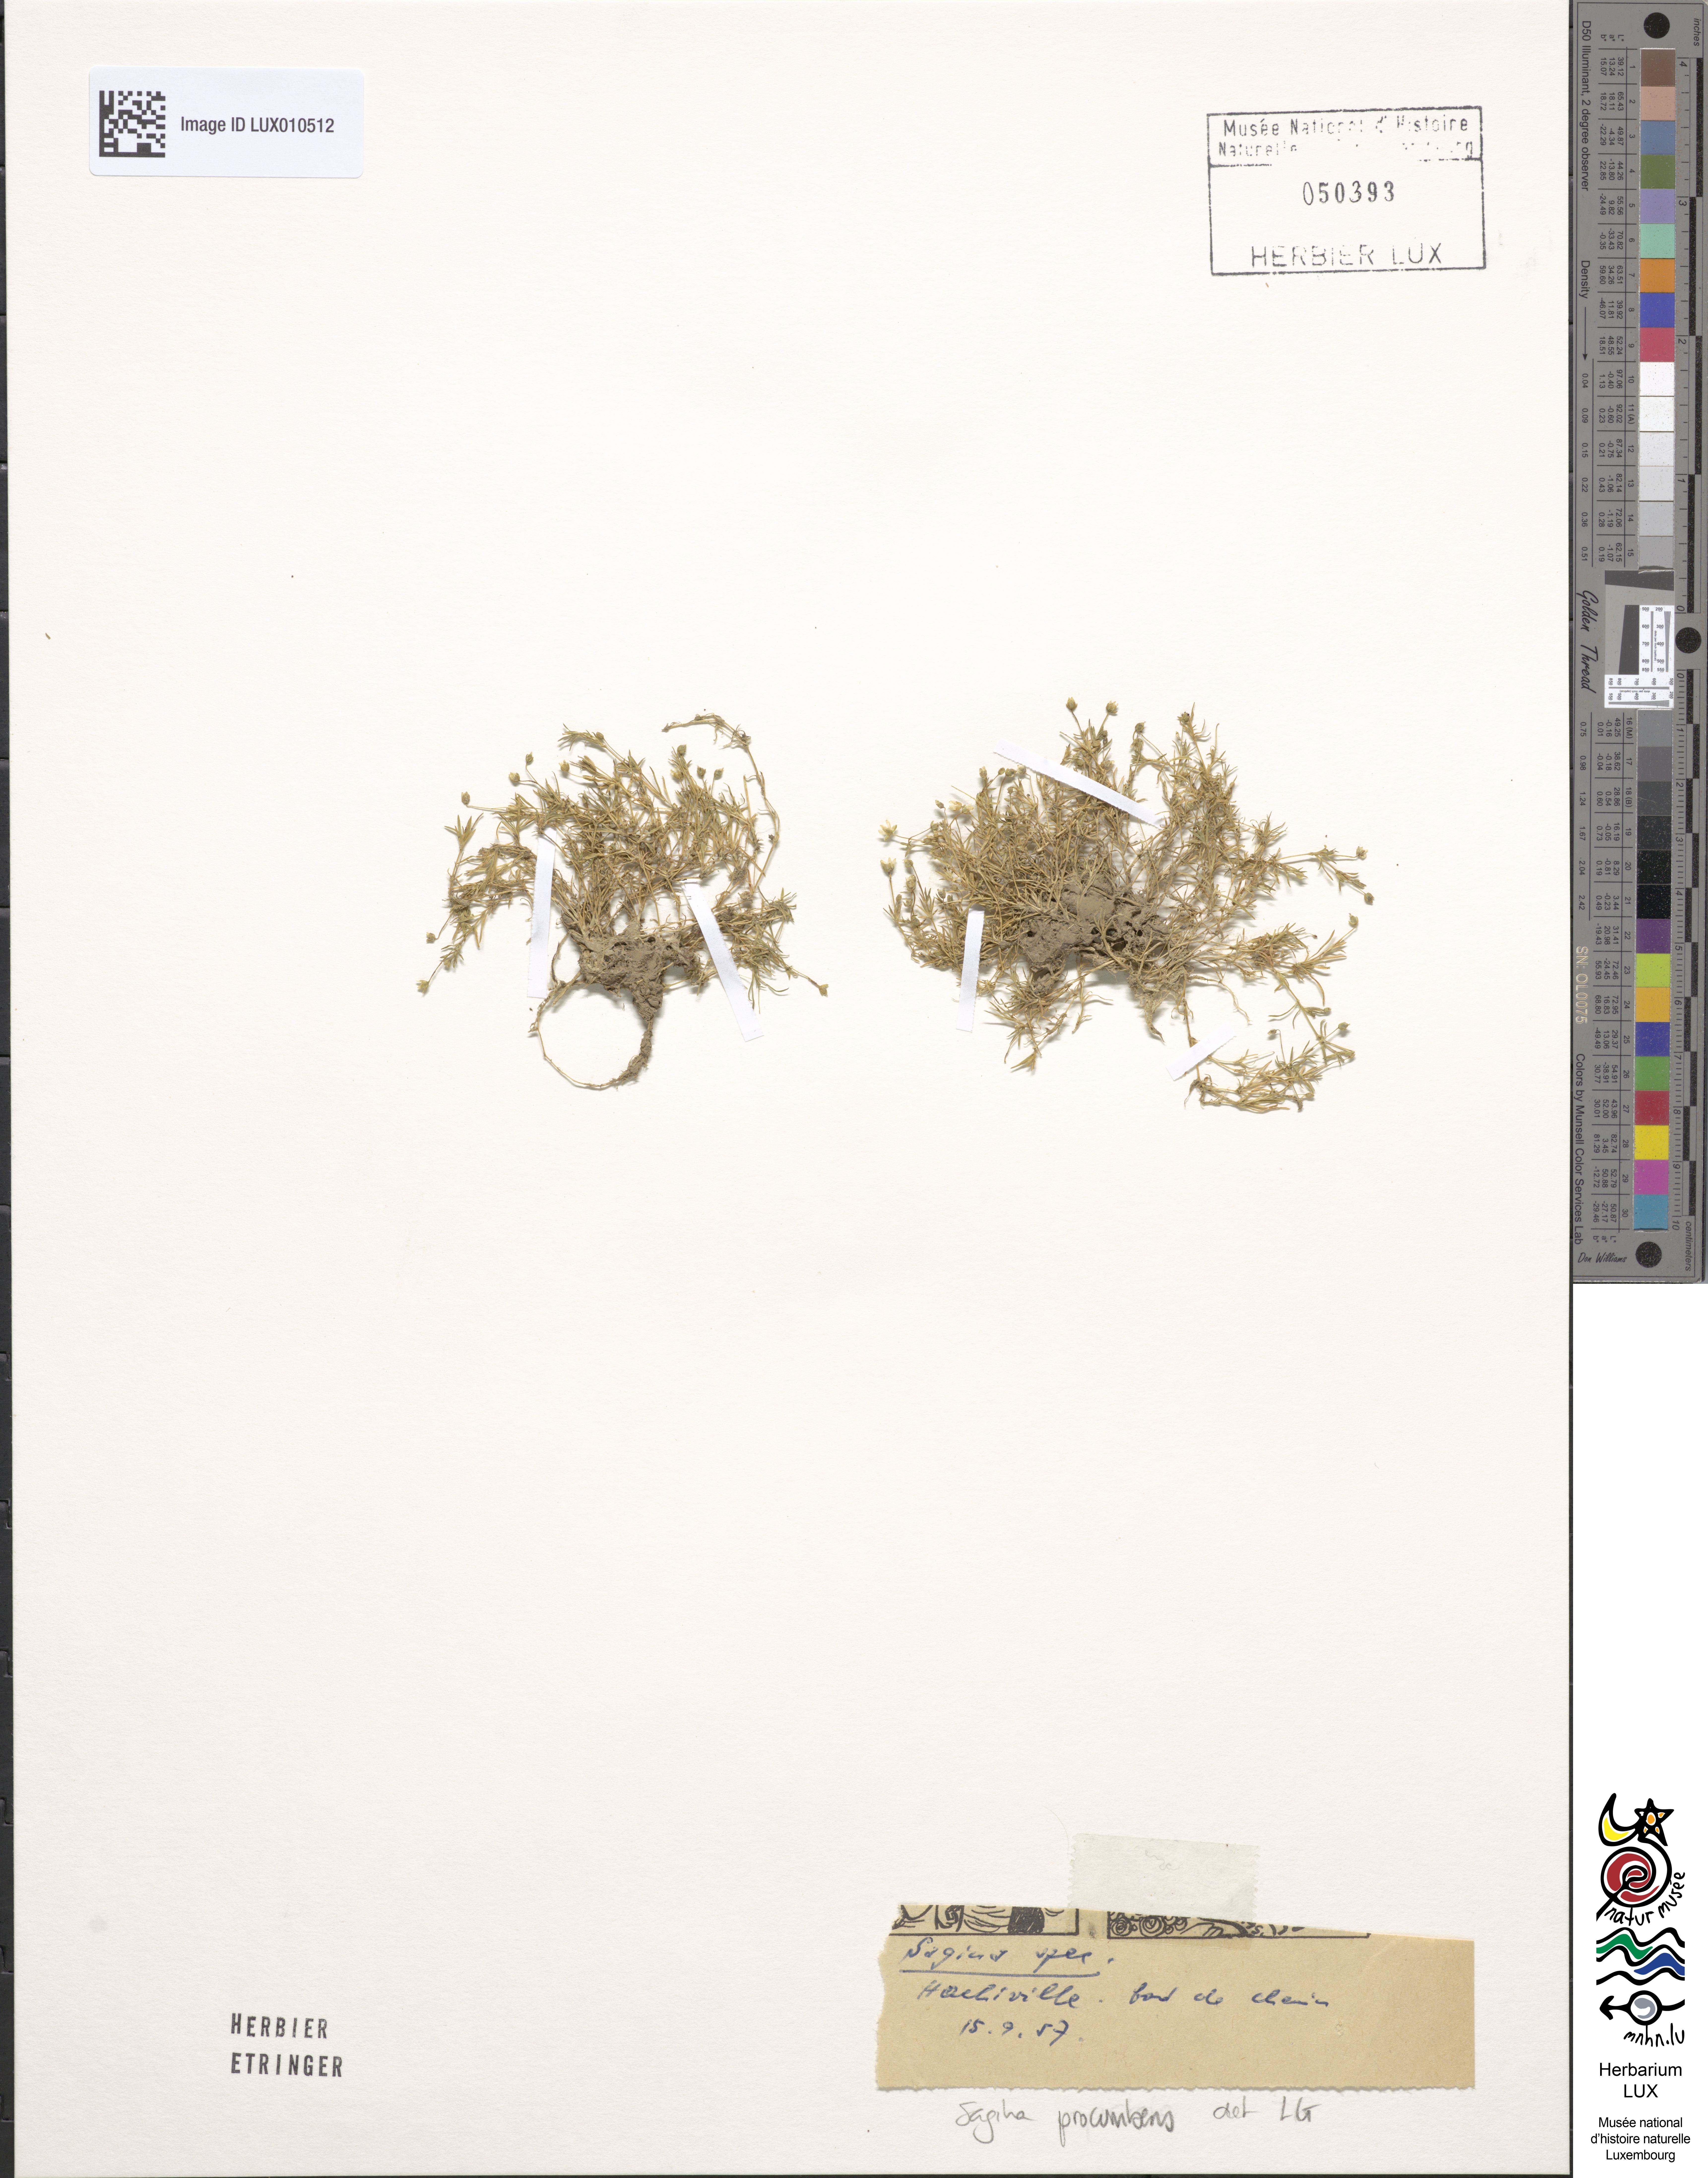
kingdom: Plantae
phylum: Tracheophyta
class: Magnoliopsida
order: Caryophyllales
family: Caryophyllaceae
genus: Sagina
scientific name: Sagina procumbens
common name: Procumbent pearlwort
